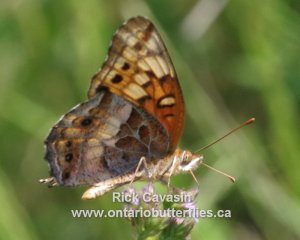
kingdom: Animalia
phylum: Arthropoda
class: Insecta
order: Lepidoptera
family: Nymphalidae
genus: Euptoieta
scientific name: Euptoieta claudia
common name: Variegated Fritillary
